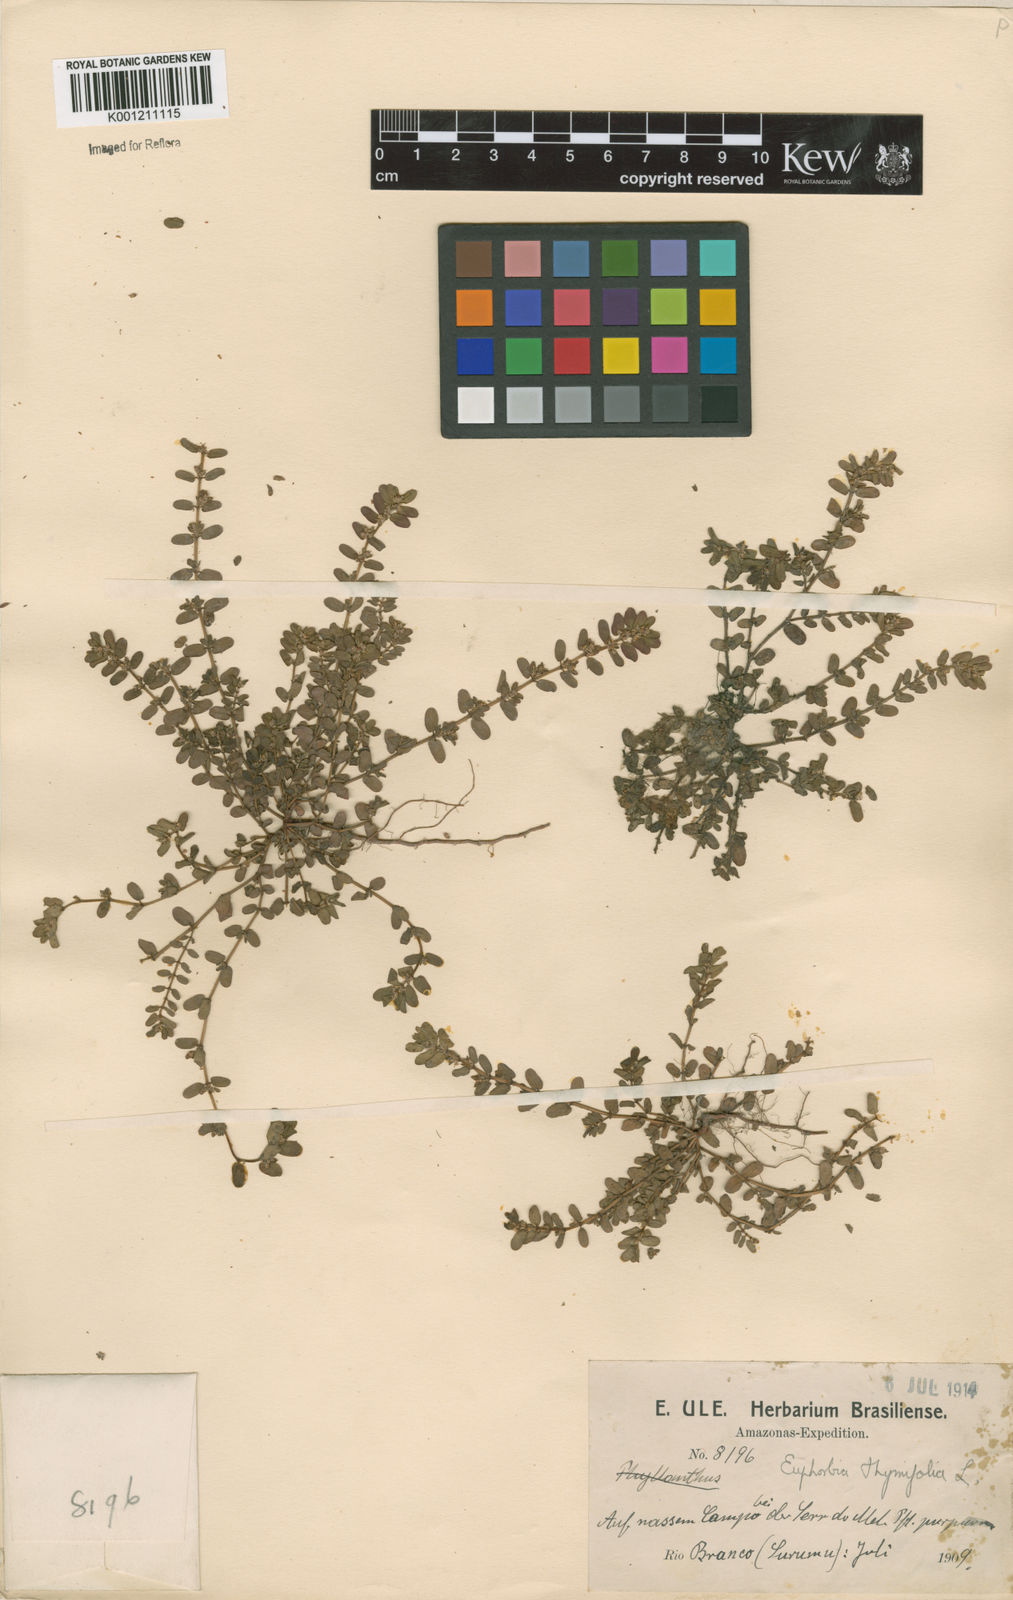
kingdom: Plantae
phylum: Tracheophyta
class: Magnoliopsida
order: Malpighiales
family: Euphorbiaceae
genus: Euphorbia
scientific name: Euphorbia thymifolia
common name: Gulf sandmat
